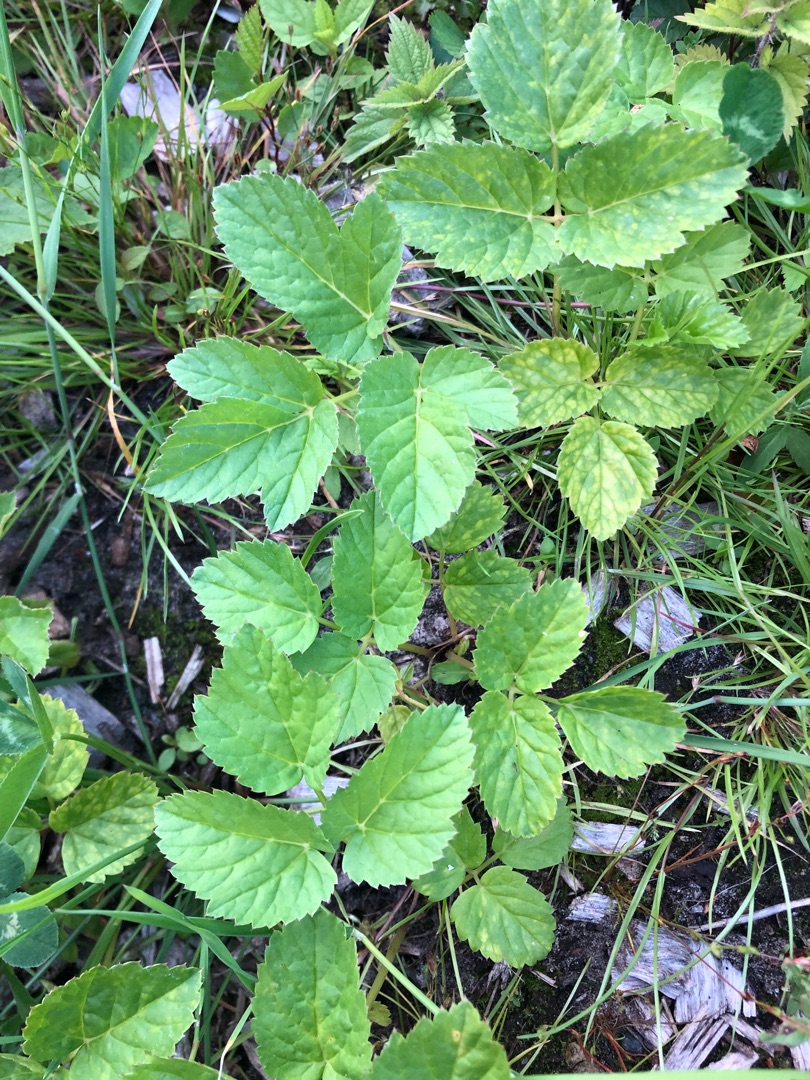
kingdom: Plantae
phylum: Tracheophyta
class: Magnoliopsida
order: Apiales
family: Apiaceae
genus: Aegopodium
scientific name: Aegopodium podagraria
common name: Skvalderkål
